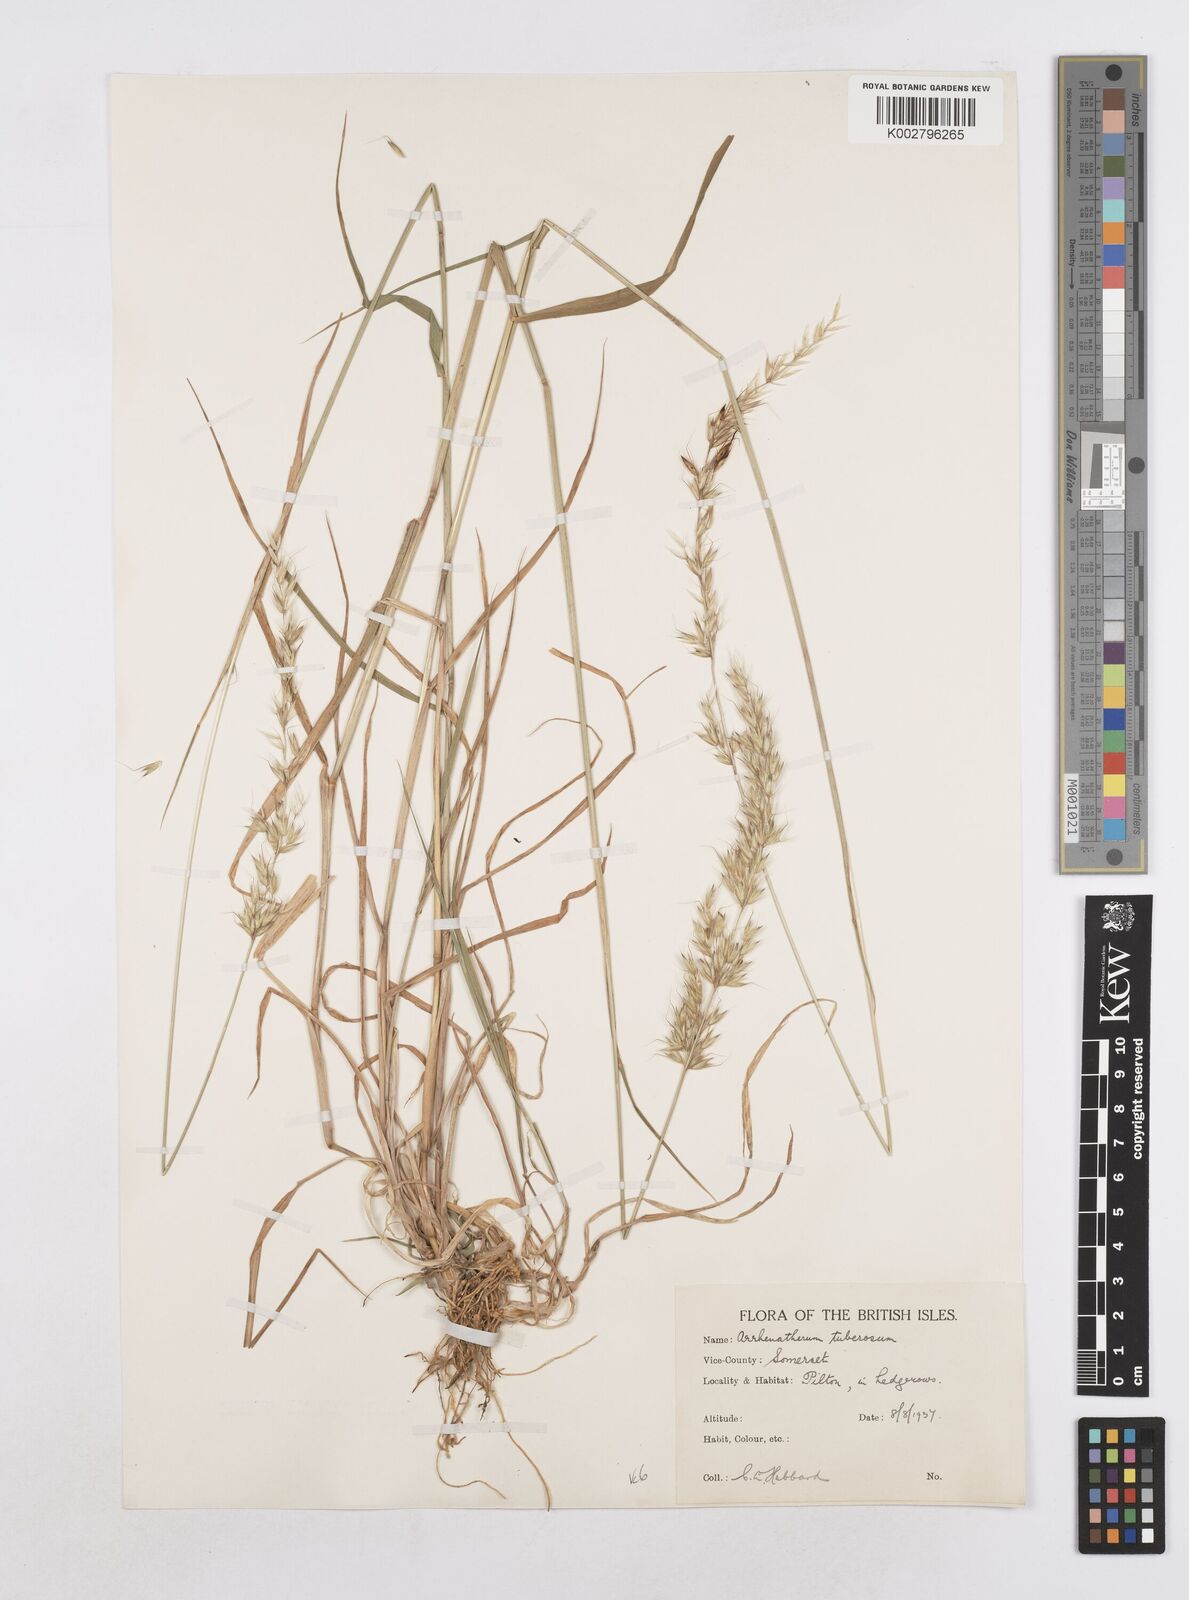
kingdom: Plantae
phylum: Tracheophyta
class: Liliopsida
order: Poales
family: Poaceae
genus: Arrhenatherum
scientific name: Arrhenatherum elatius
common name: Tall oatgrass
